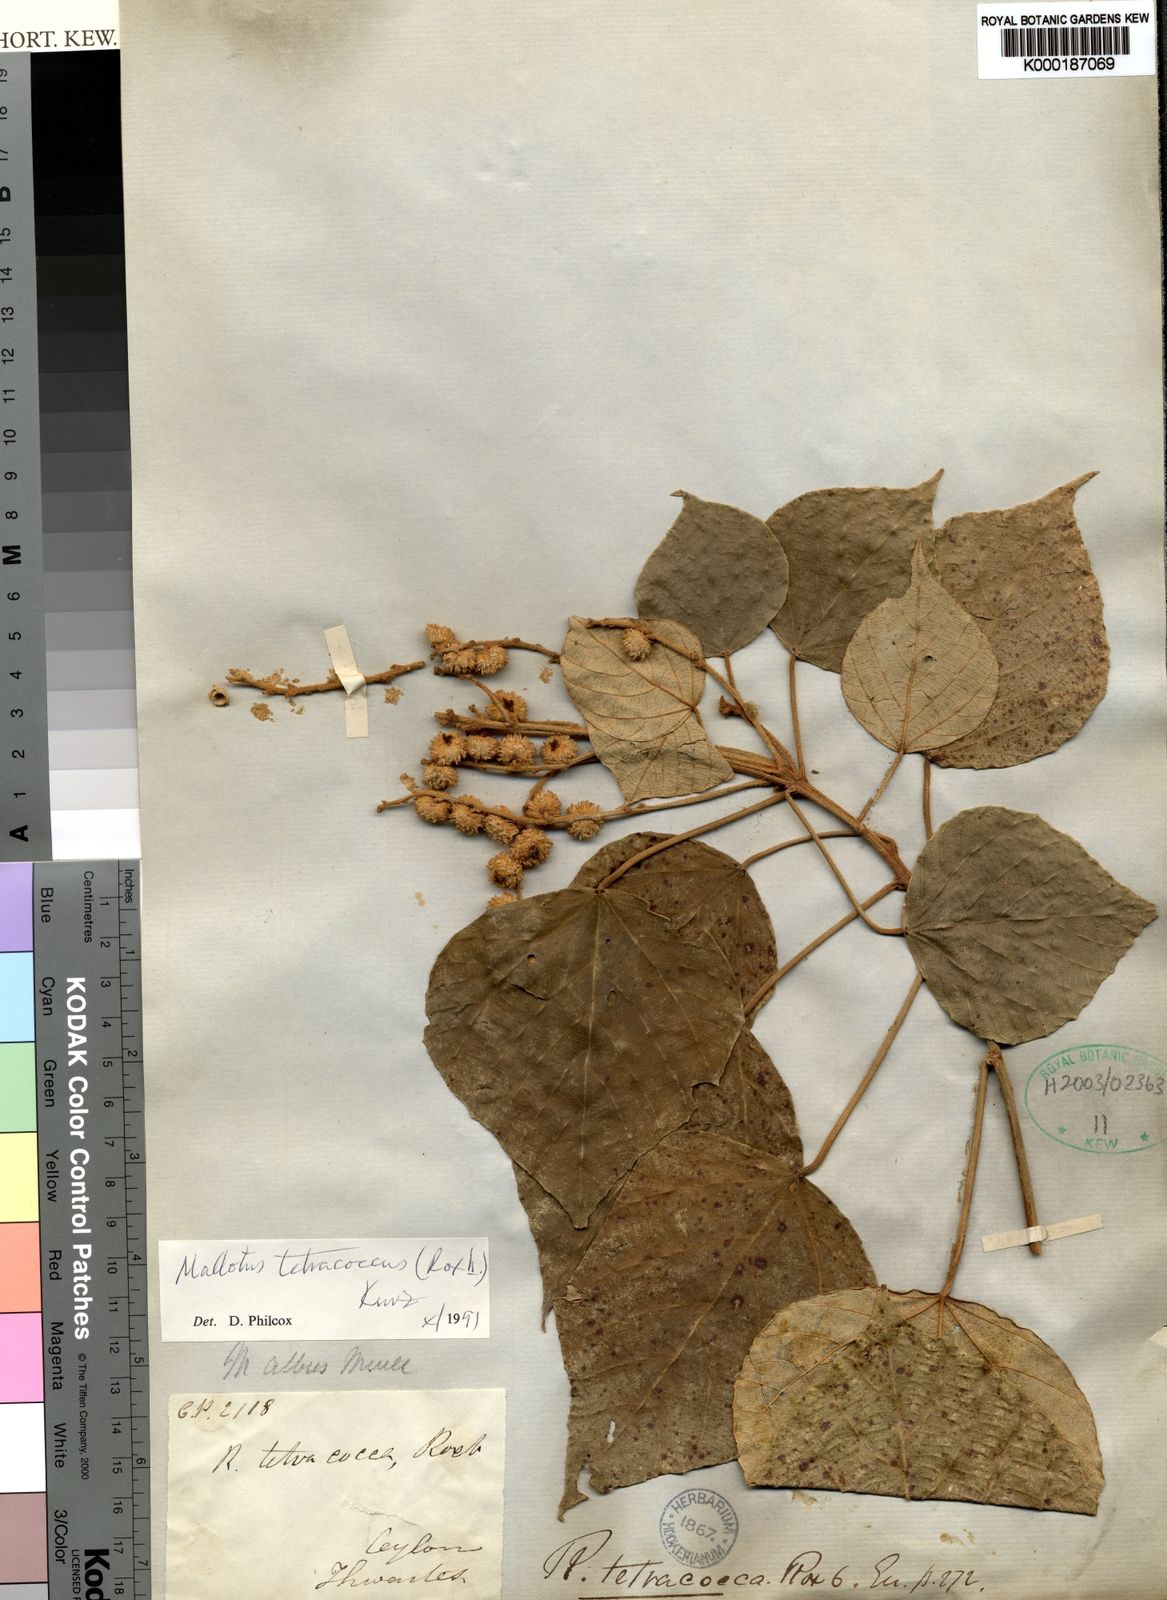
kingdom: Plantae
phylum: Tracheophyta
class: Magnoliopsida
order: Malpighiales
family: Euphorbiaceae
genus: Mallotus
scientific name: Mallotus tetracoccus
